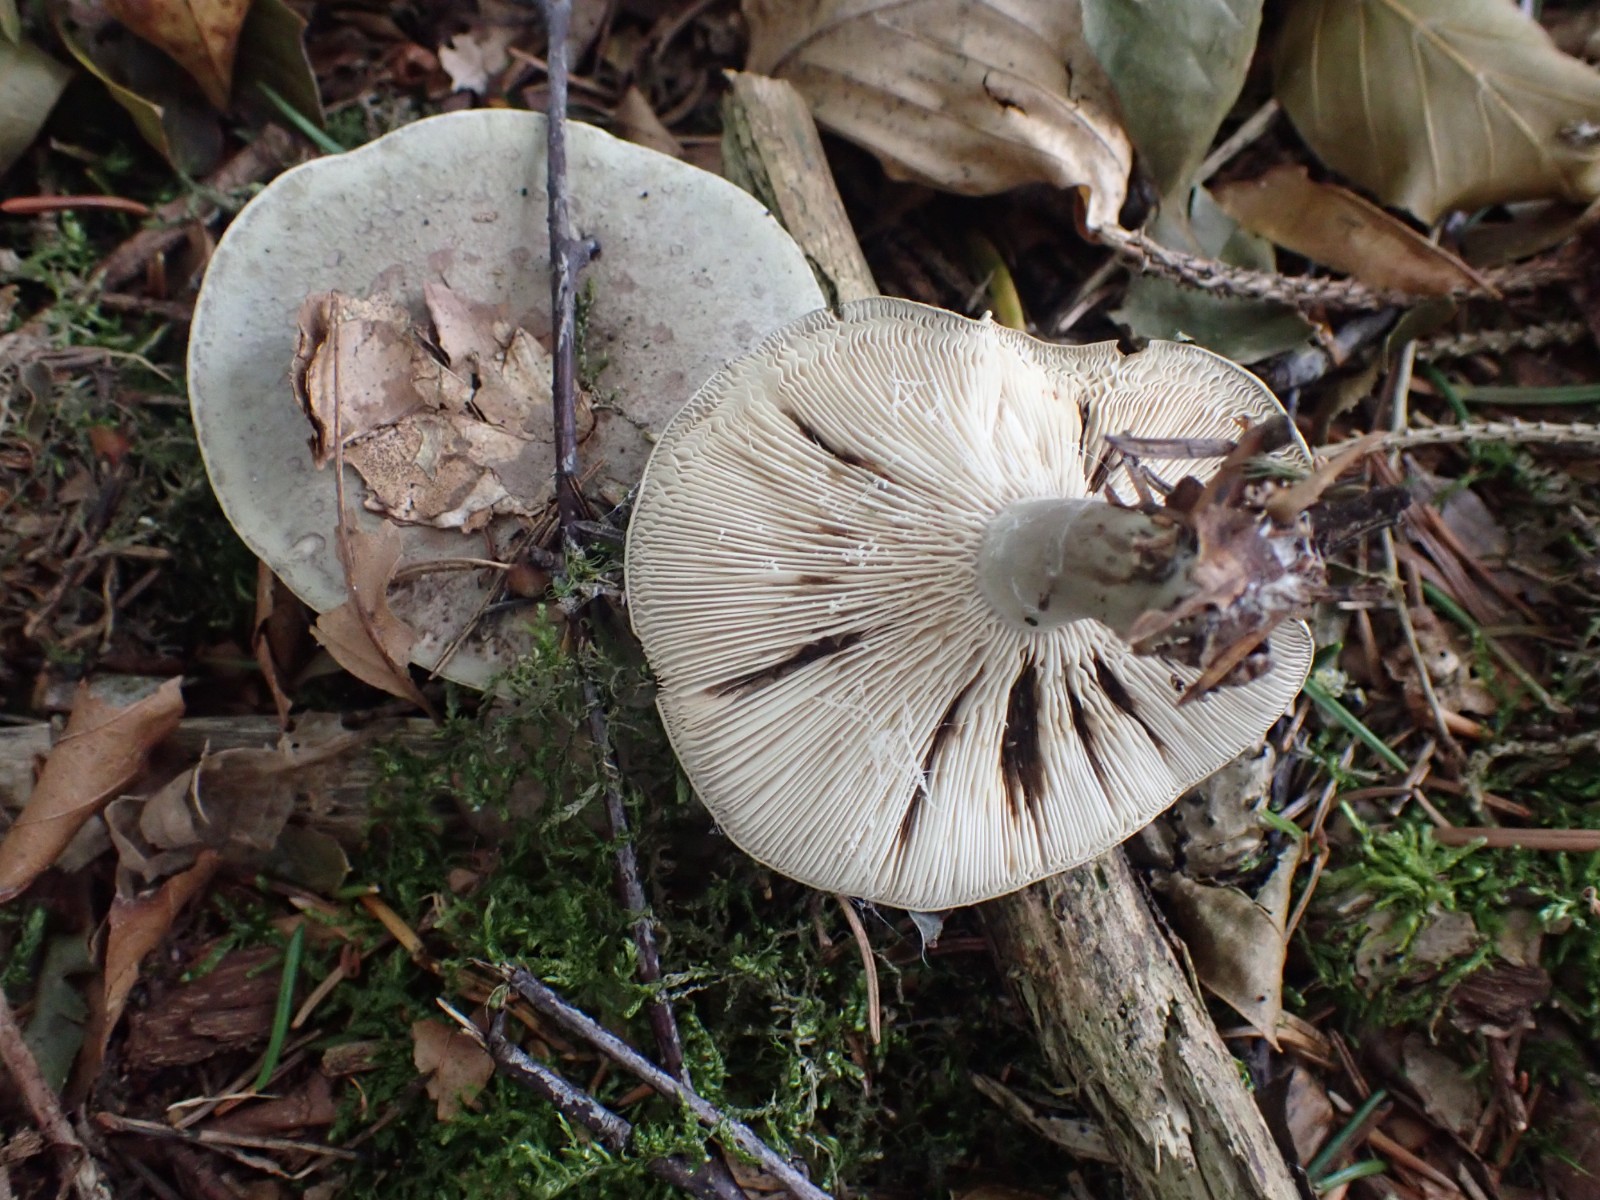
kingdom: Fungi
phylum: Basidiomycota
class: Agaricomycetes
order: Russulales
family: Russulaceae
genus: Lactarius
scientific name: Lactarius blennius
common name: dråbeplettet mælkehat
